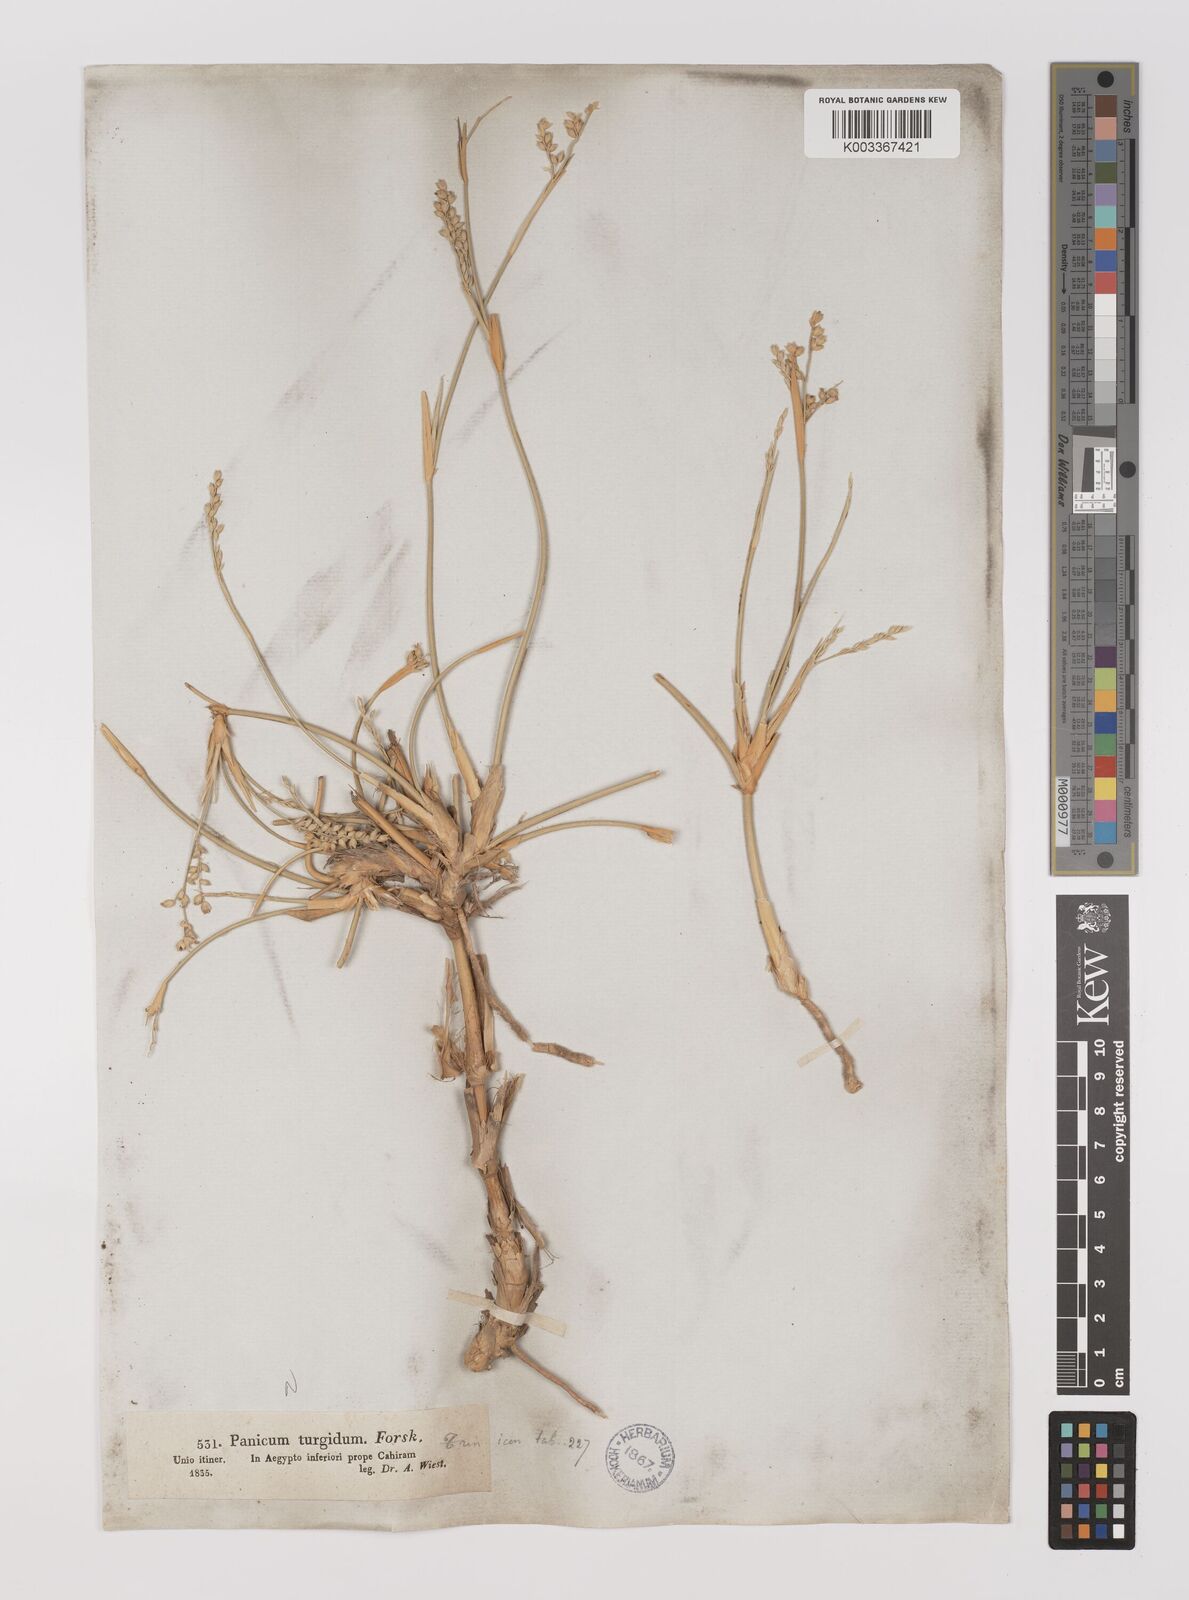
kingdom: Plantae
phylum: Tracheophyta
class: Liliopsida
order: Poales
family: Poaceae
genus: Panicum
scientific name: Panicum turgidum
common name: Desert grass
